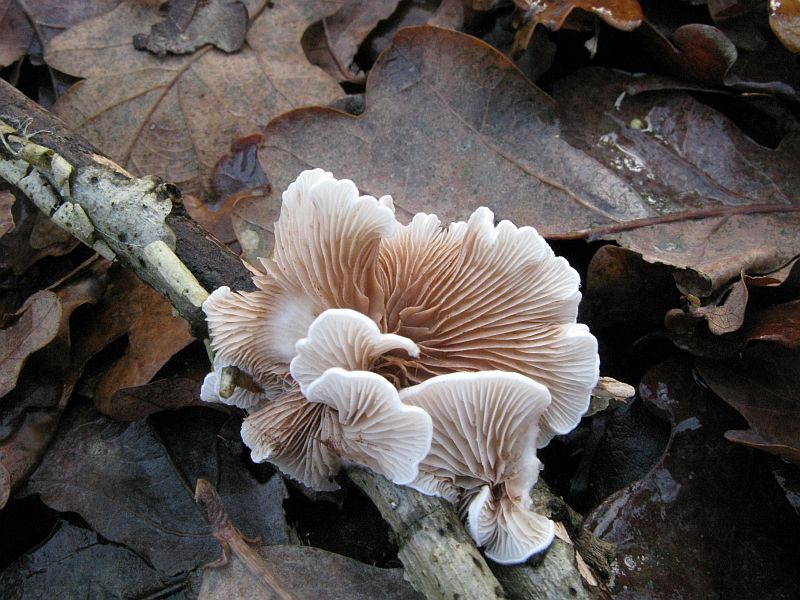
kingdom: Fungi
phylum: Basidiomycota
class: Agaricomycetes
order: Agaricales
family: Crepidotaceae
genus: Crepidotus
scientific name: Crepidotus variabilis
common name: forskelligformet muslingesvamp
